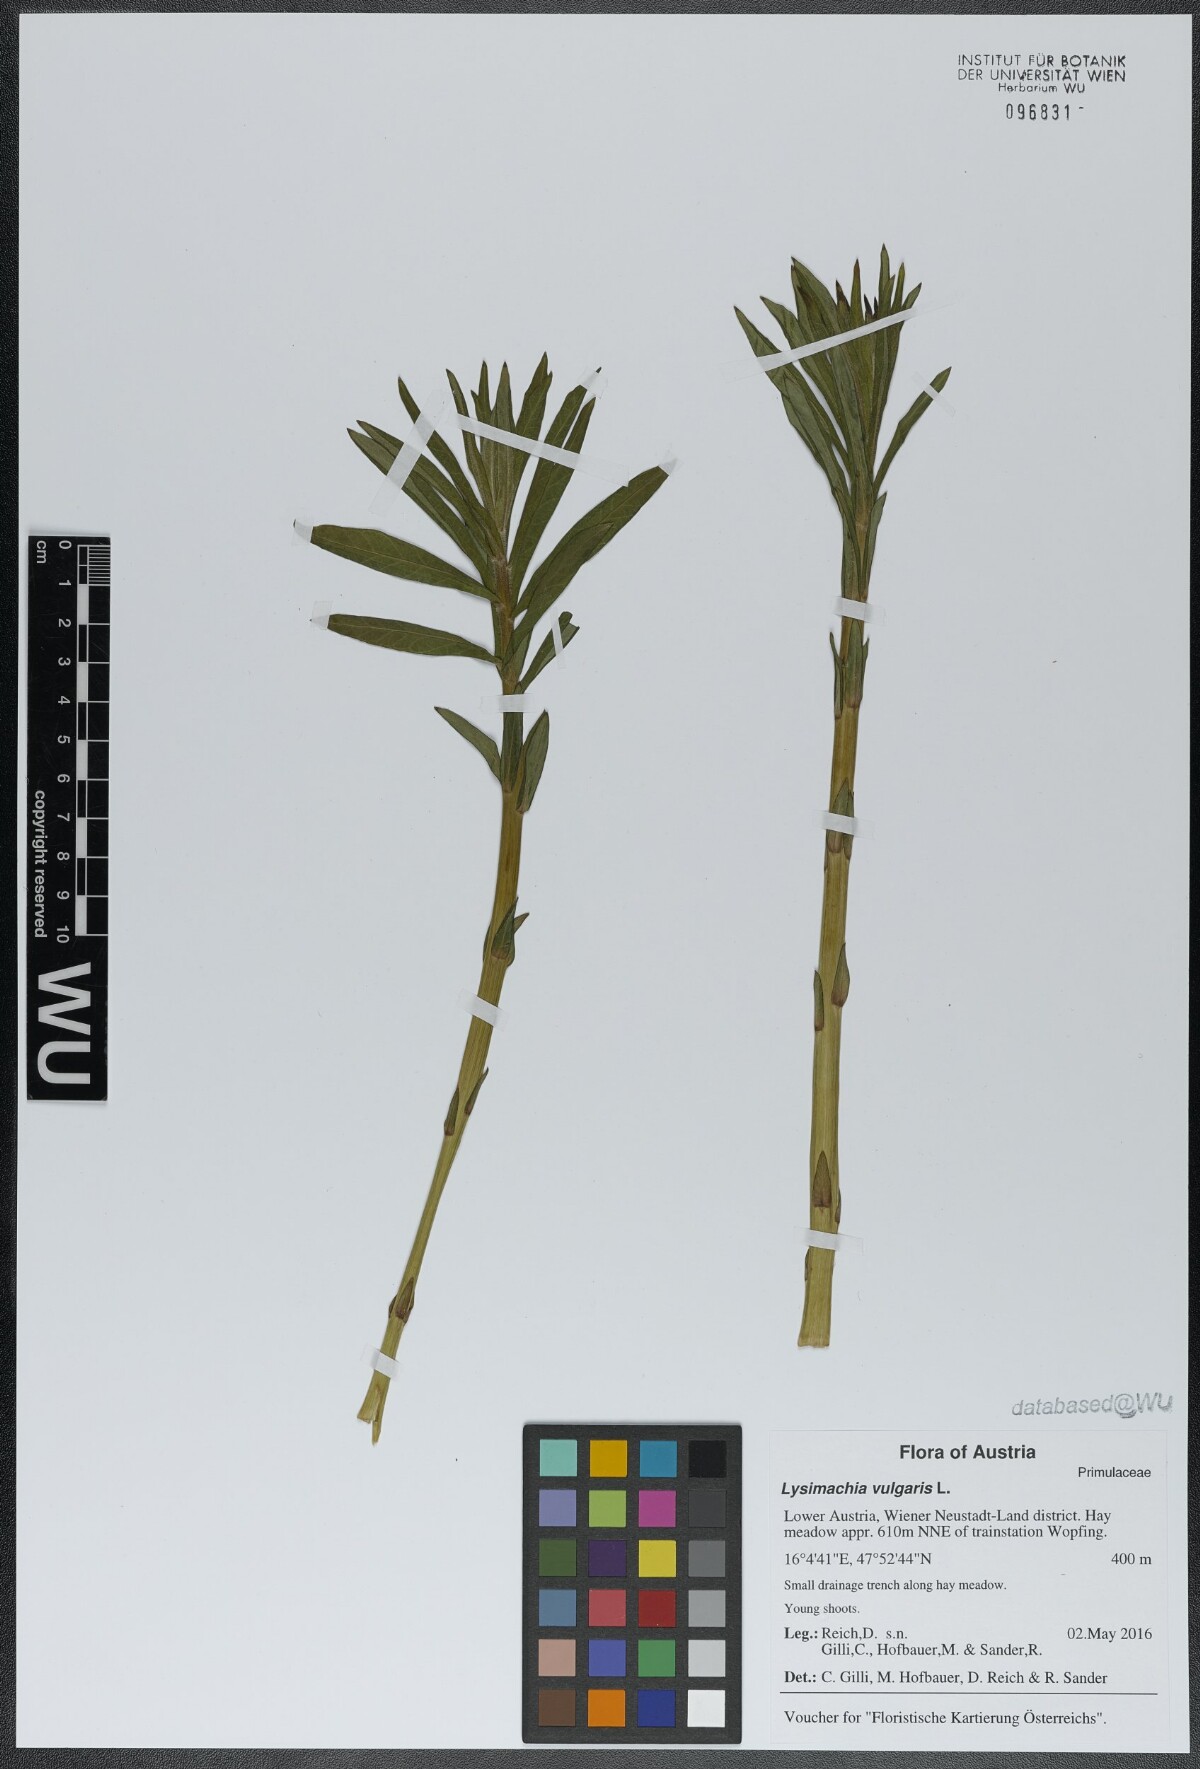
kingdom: Plantae
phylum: Tracheophyta
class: Magnoliopsida
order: Ericales
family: Primulaceae
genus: Lysimachia
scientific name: Lysimachia vulgaris
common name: Yellow loosestrife
